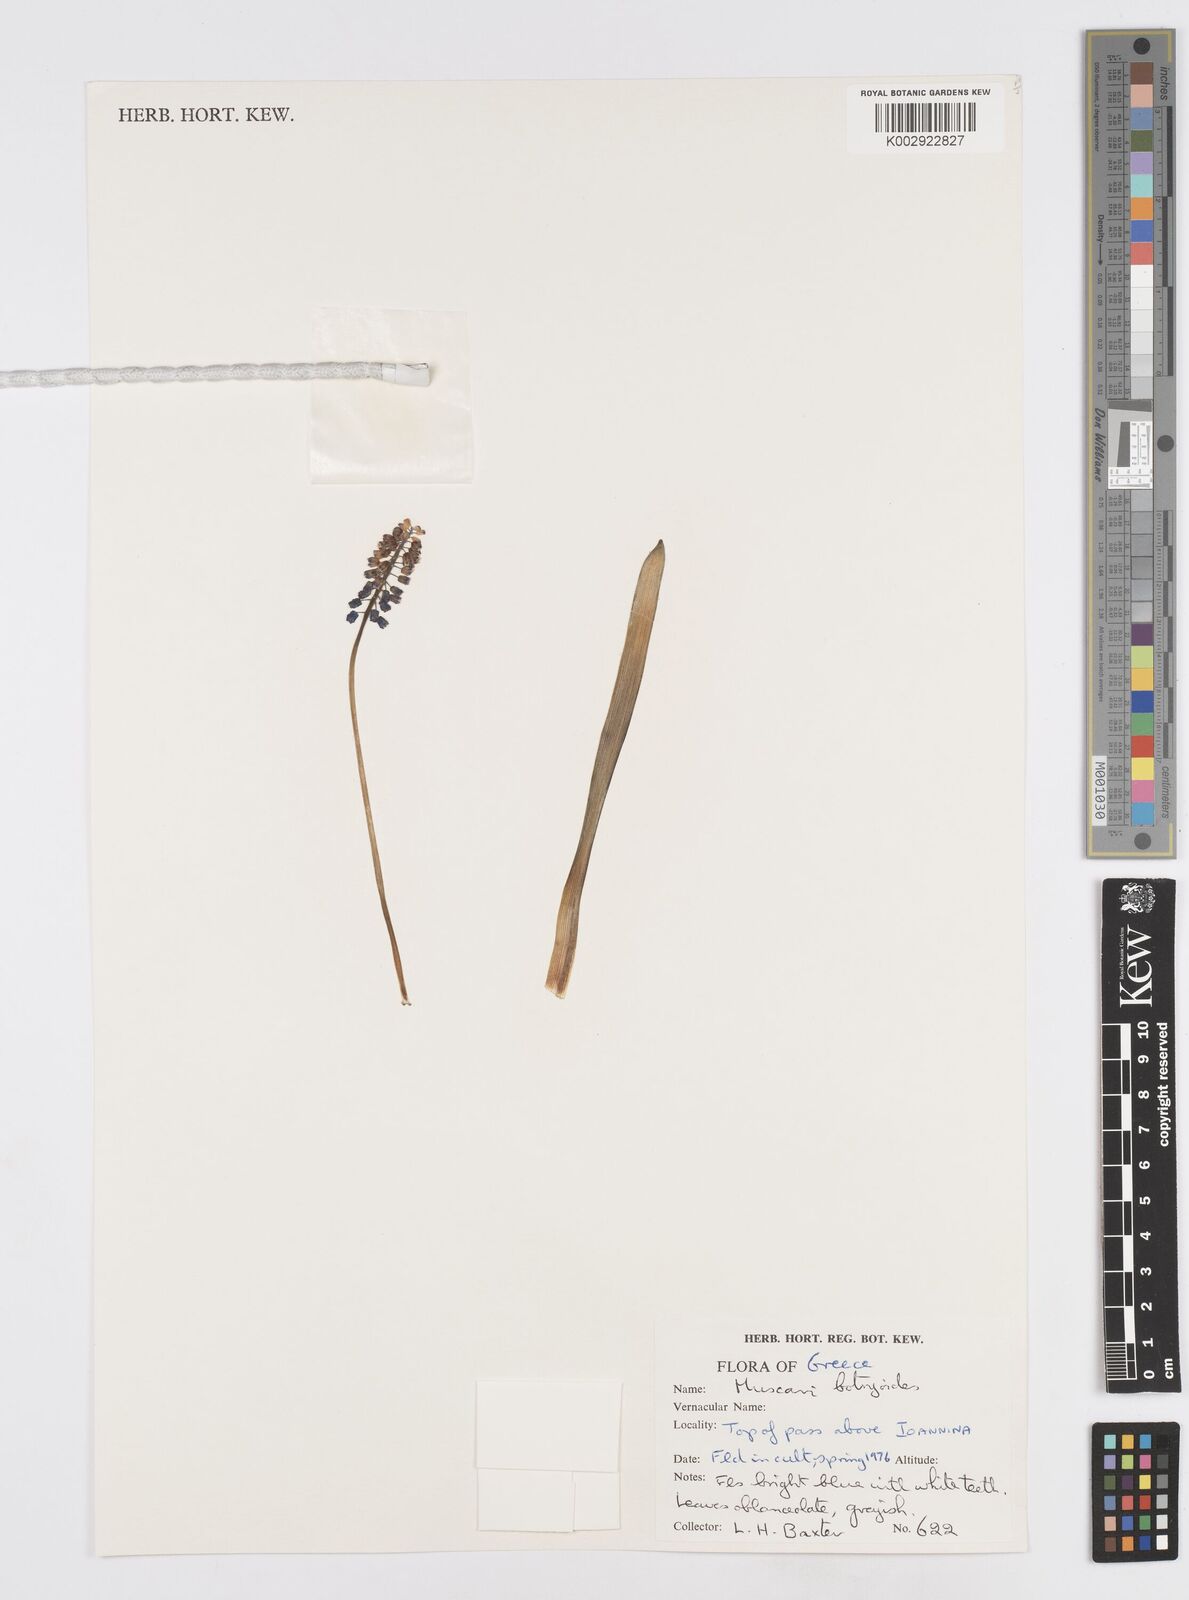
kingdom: Plantae
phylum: Tracheophyta
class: Liliopsida
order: Asparagales
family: Asparagaceae
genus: Muscari
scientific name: Muscari botryoides
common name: Compact grape-hyacinth
